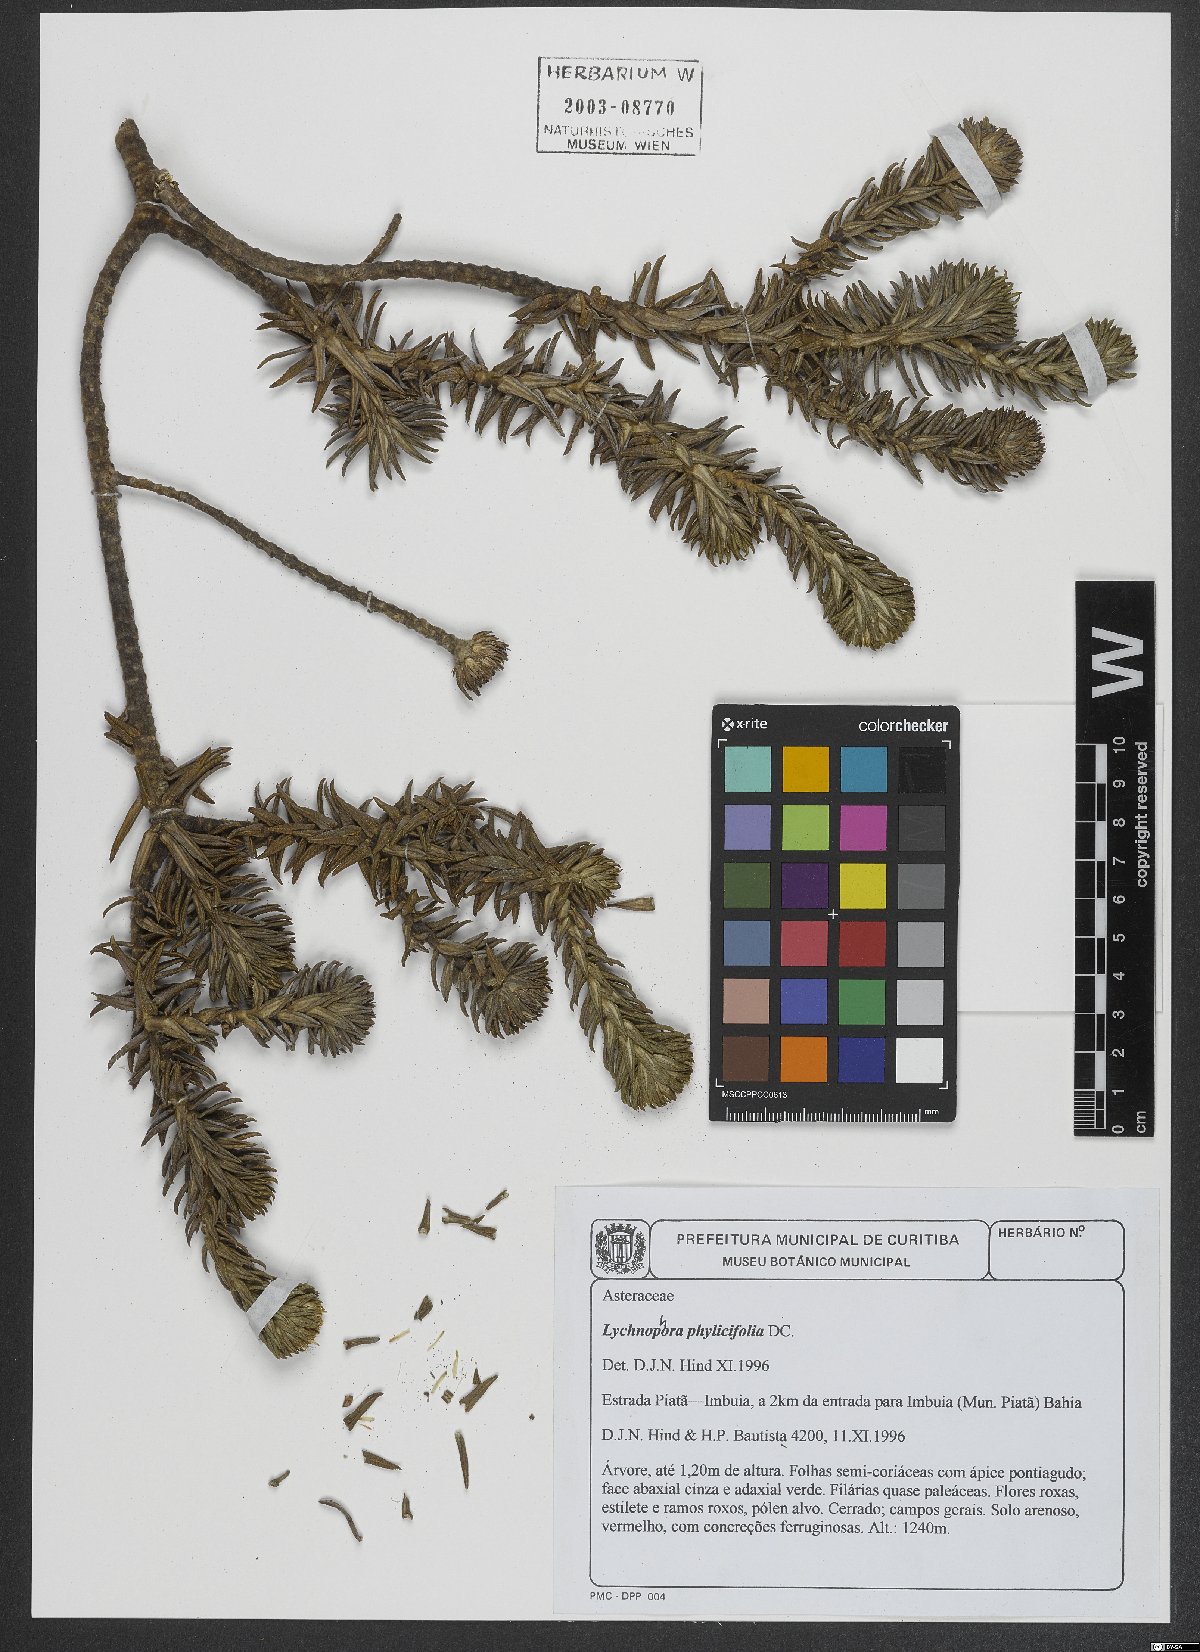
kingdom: Plantae
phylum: Tracheophyta
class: Magnoliopsida
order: Asterales
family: Asteraceae
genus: Lychnophora
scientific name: Lychnophora phylicifolia
